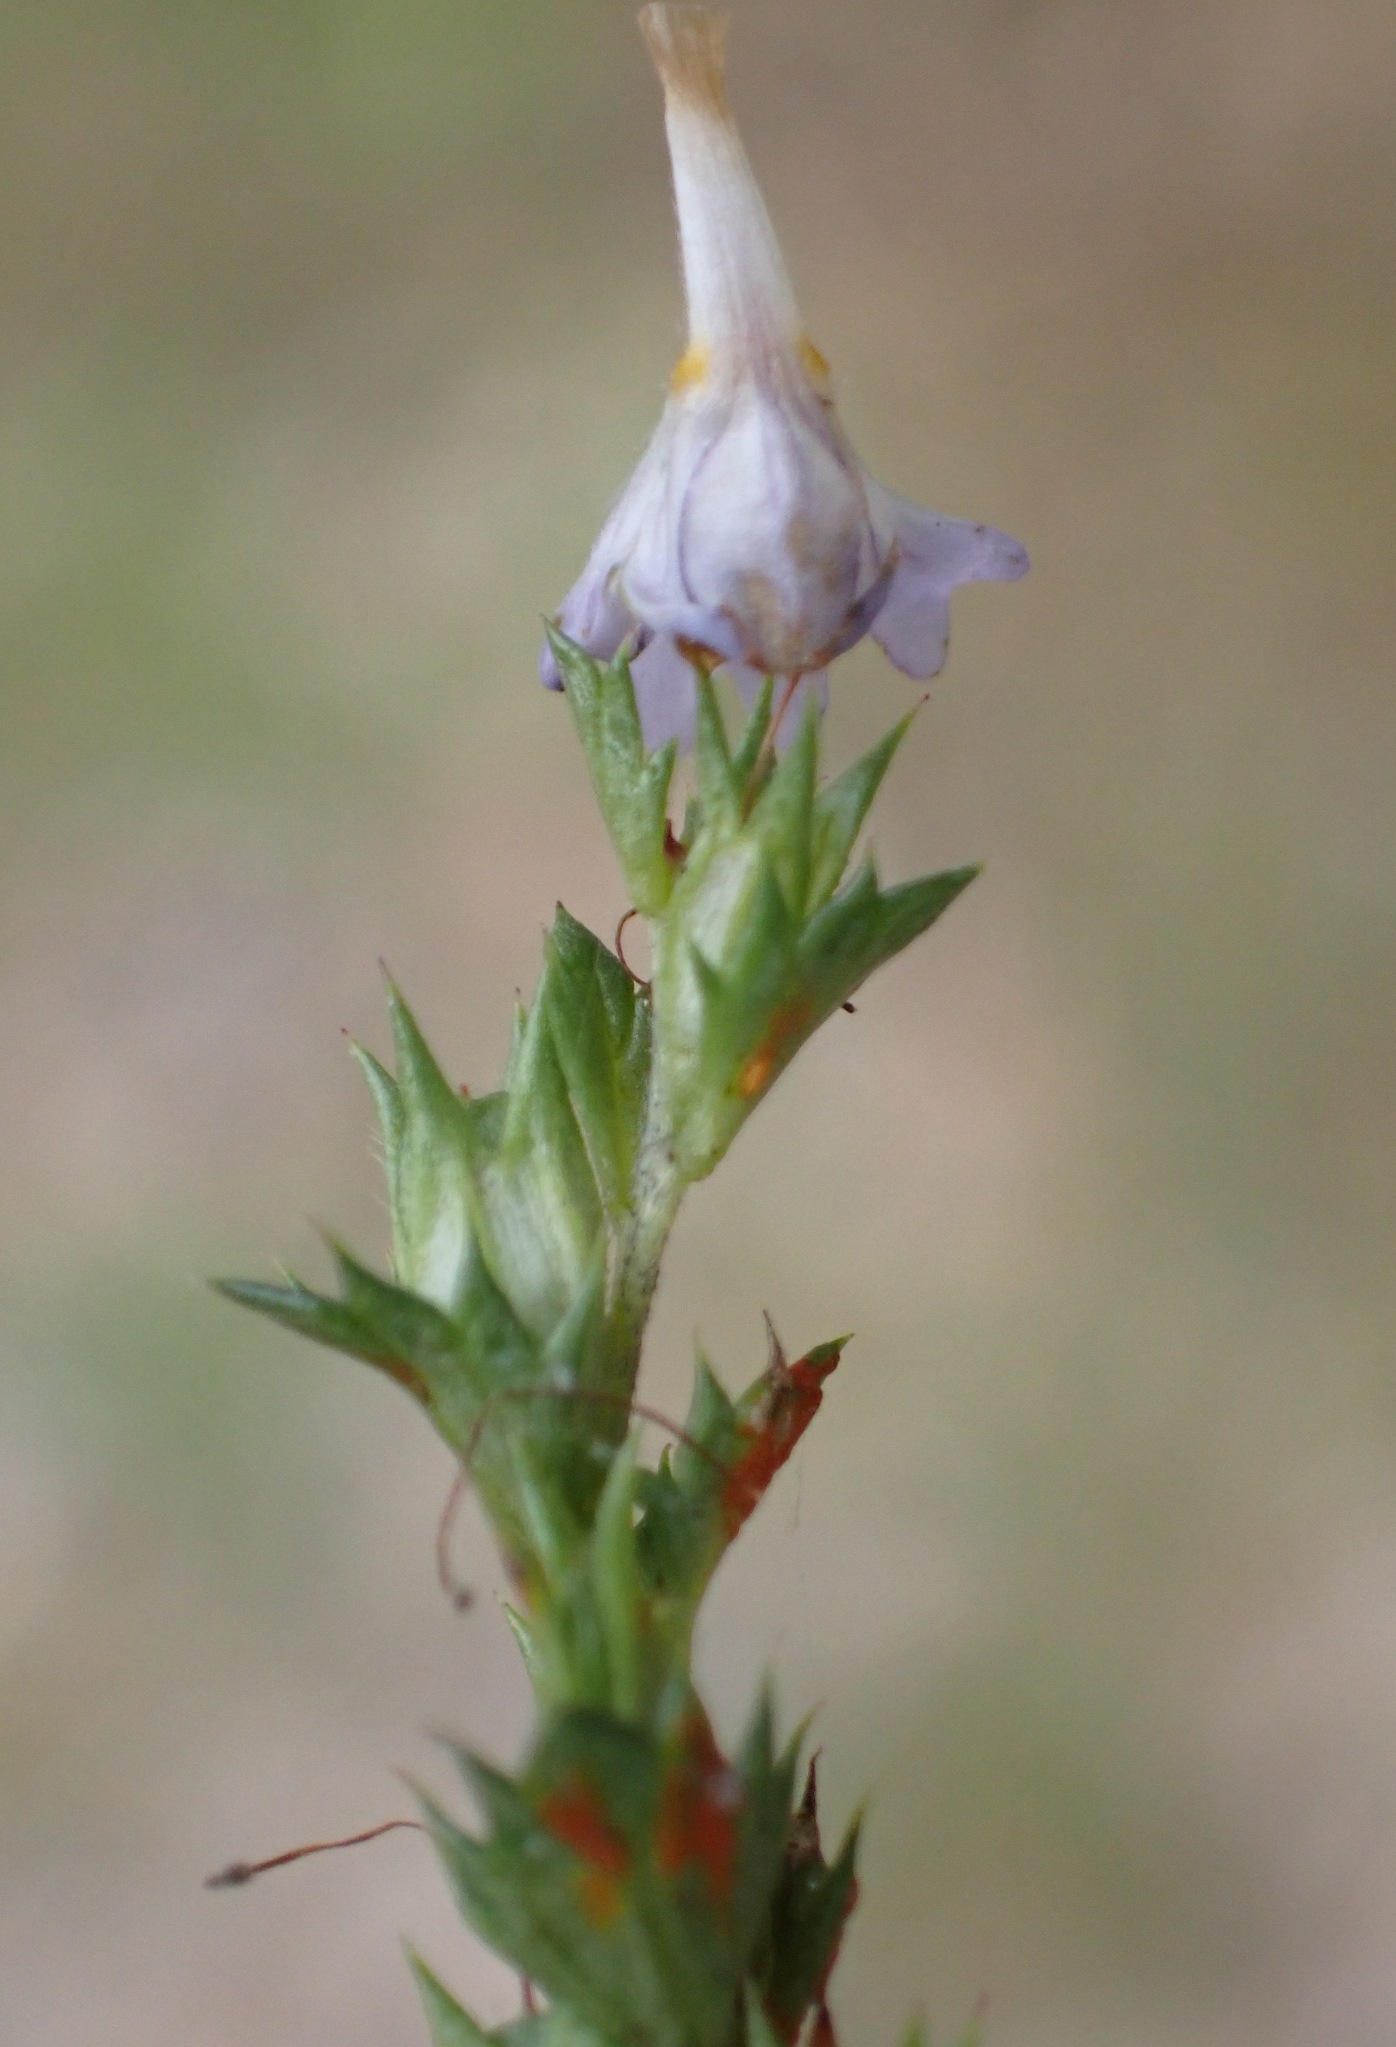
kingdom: Fungi
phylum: Basidiomycota
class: Pucciniomycetes
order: Pucciniales
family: Coleosporiaceae
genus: Coleosporium
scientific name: Coleosporium tussilaginis
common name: almindelig fyrrenålerust
